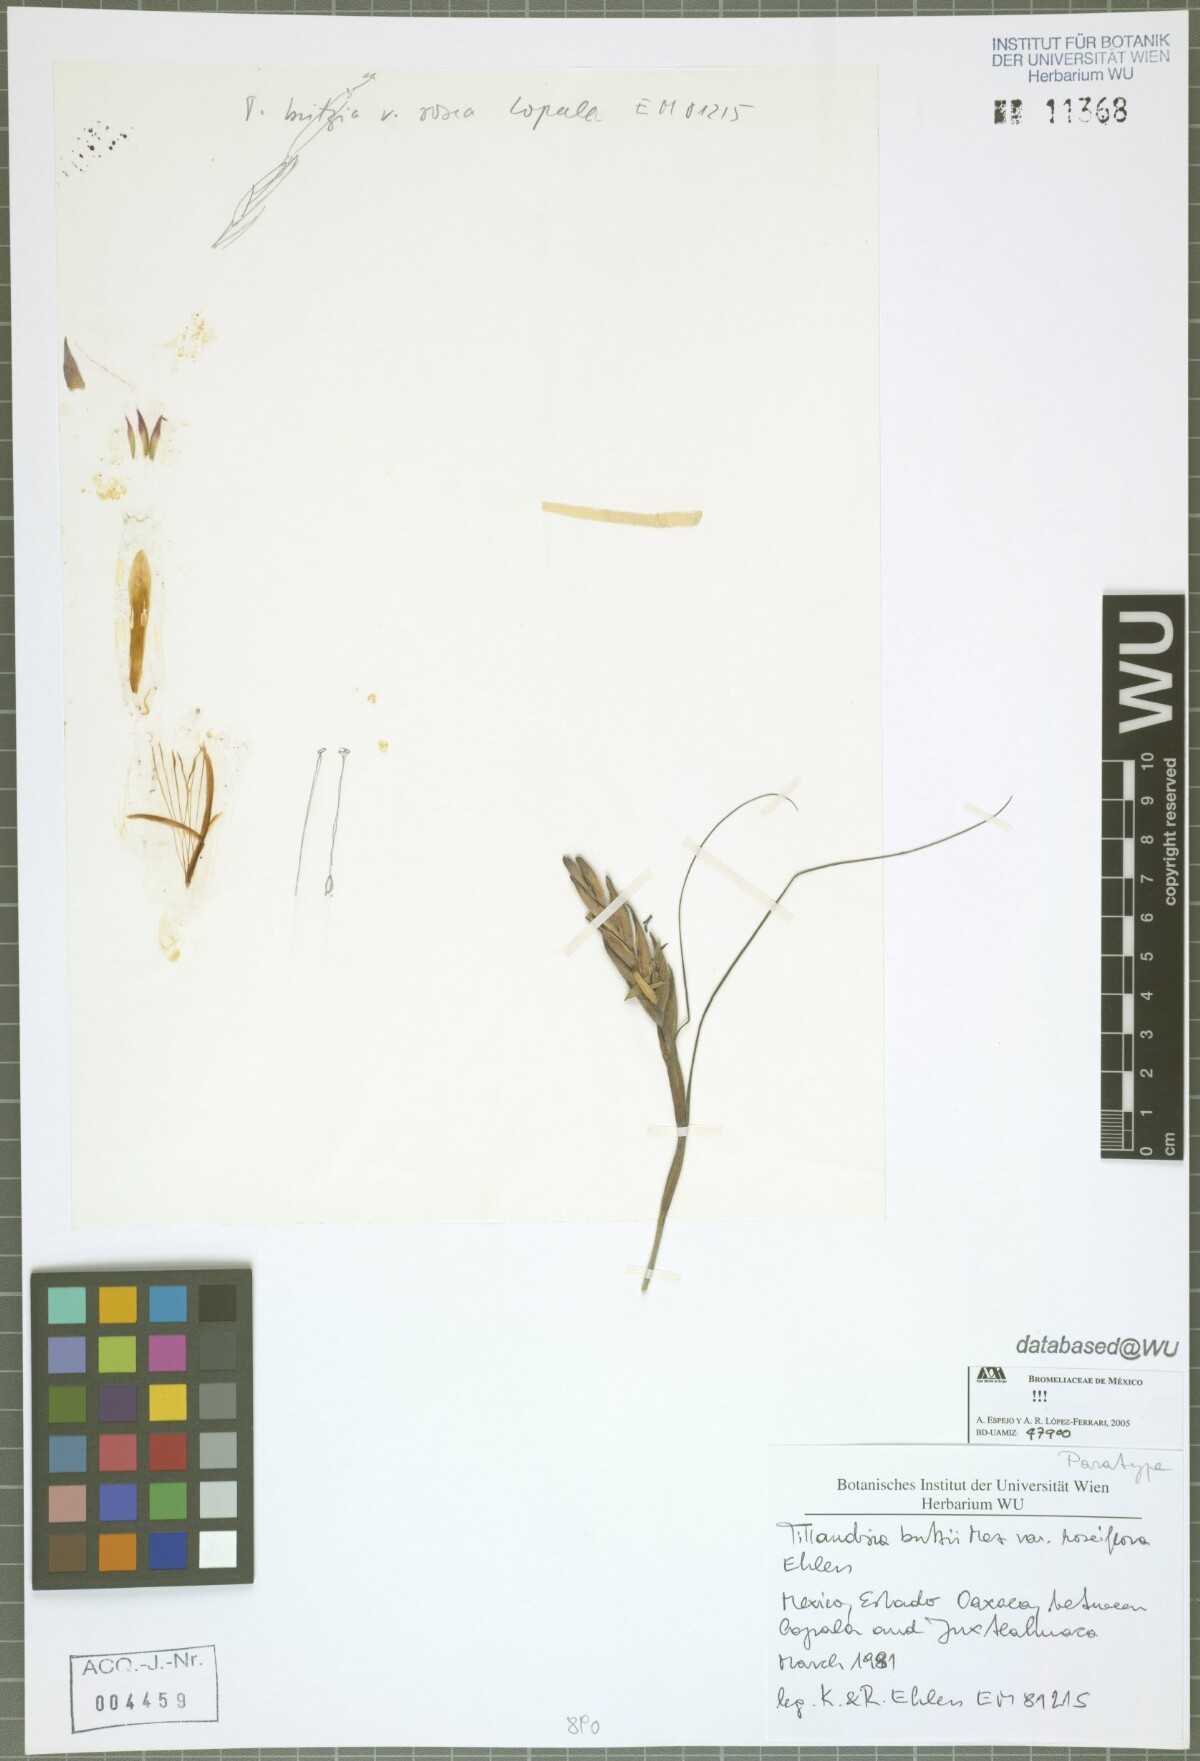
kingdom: Plantae
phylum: Tracheophyta
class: Liliopsida
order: Poales
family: Bromeliaceae
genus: Tillandsia
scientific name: Tillandsia butzii
